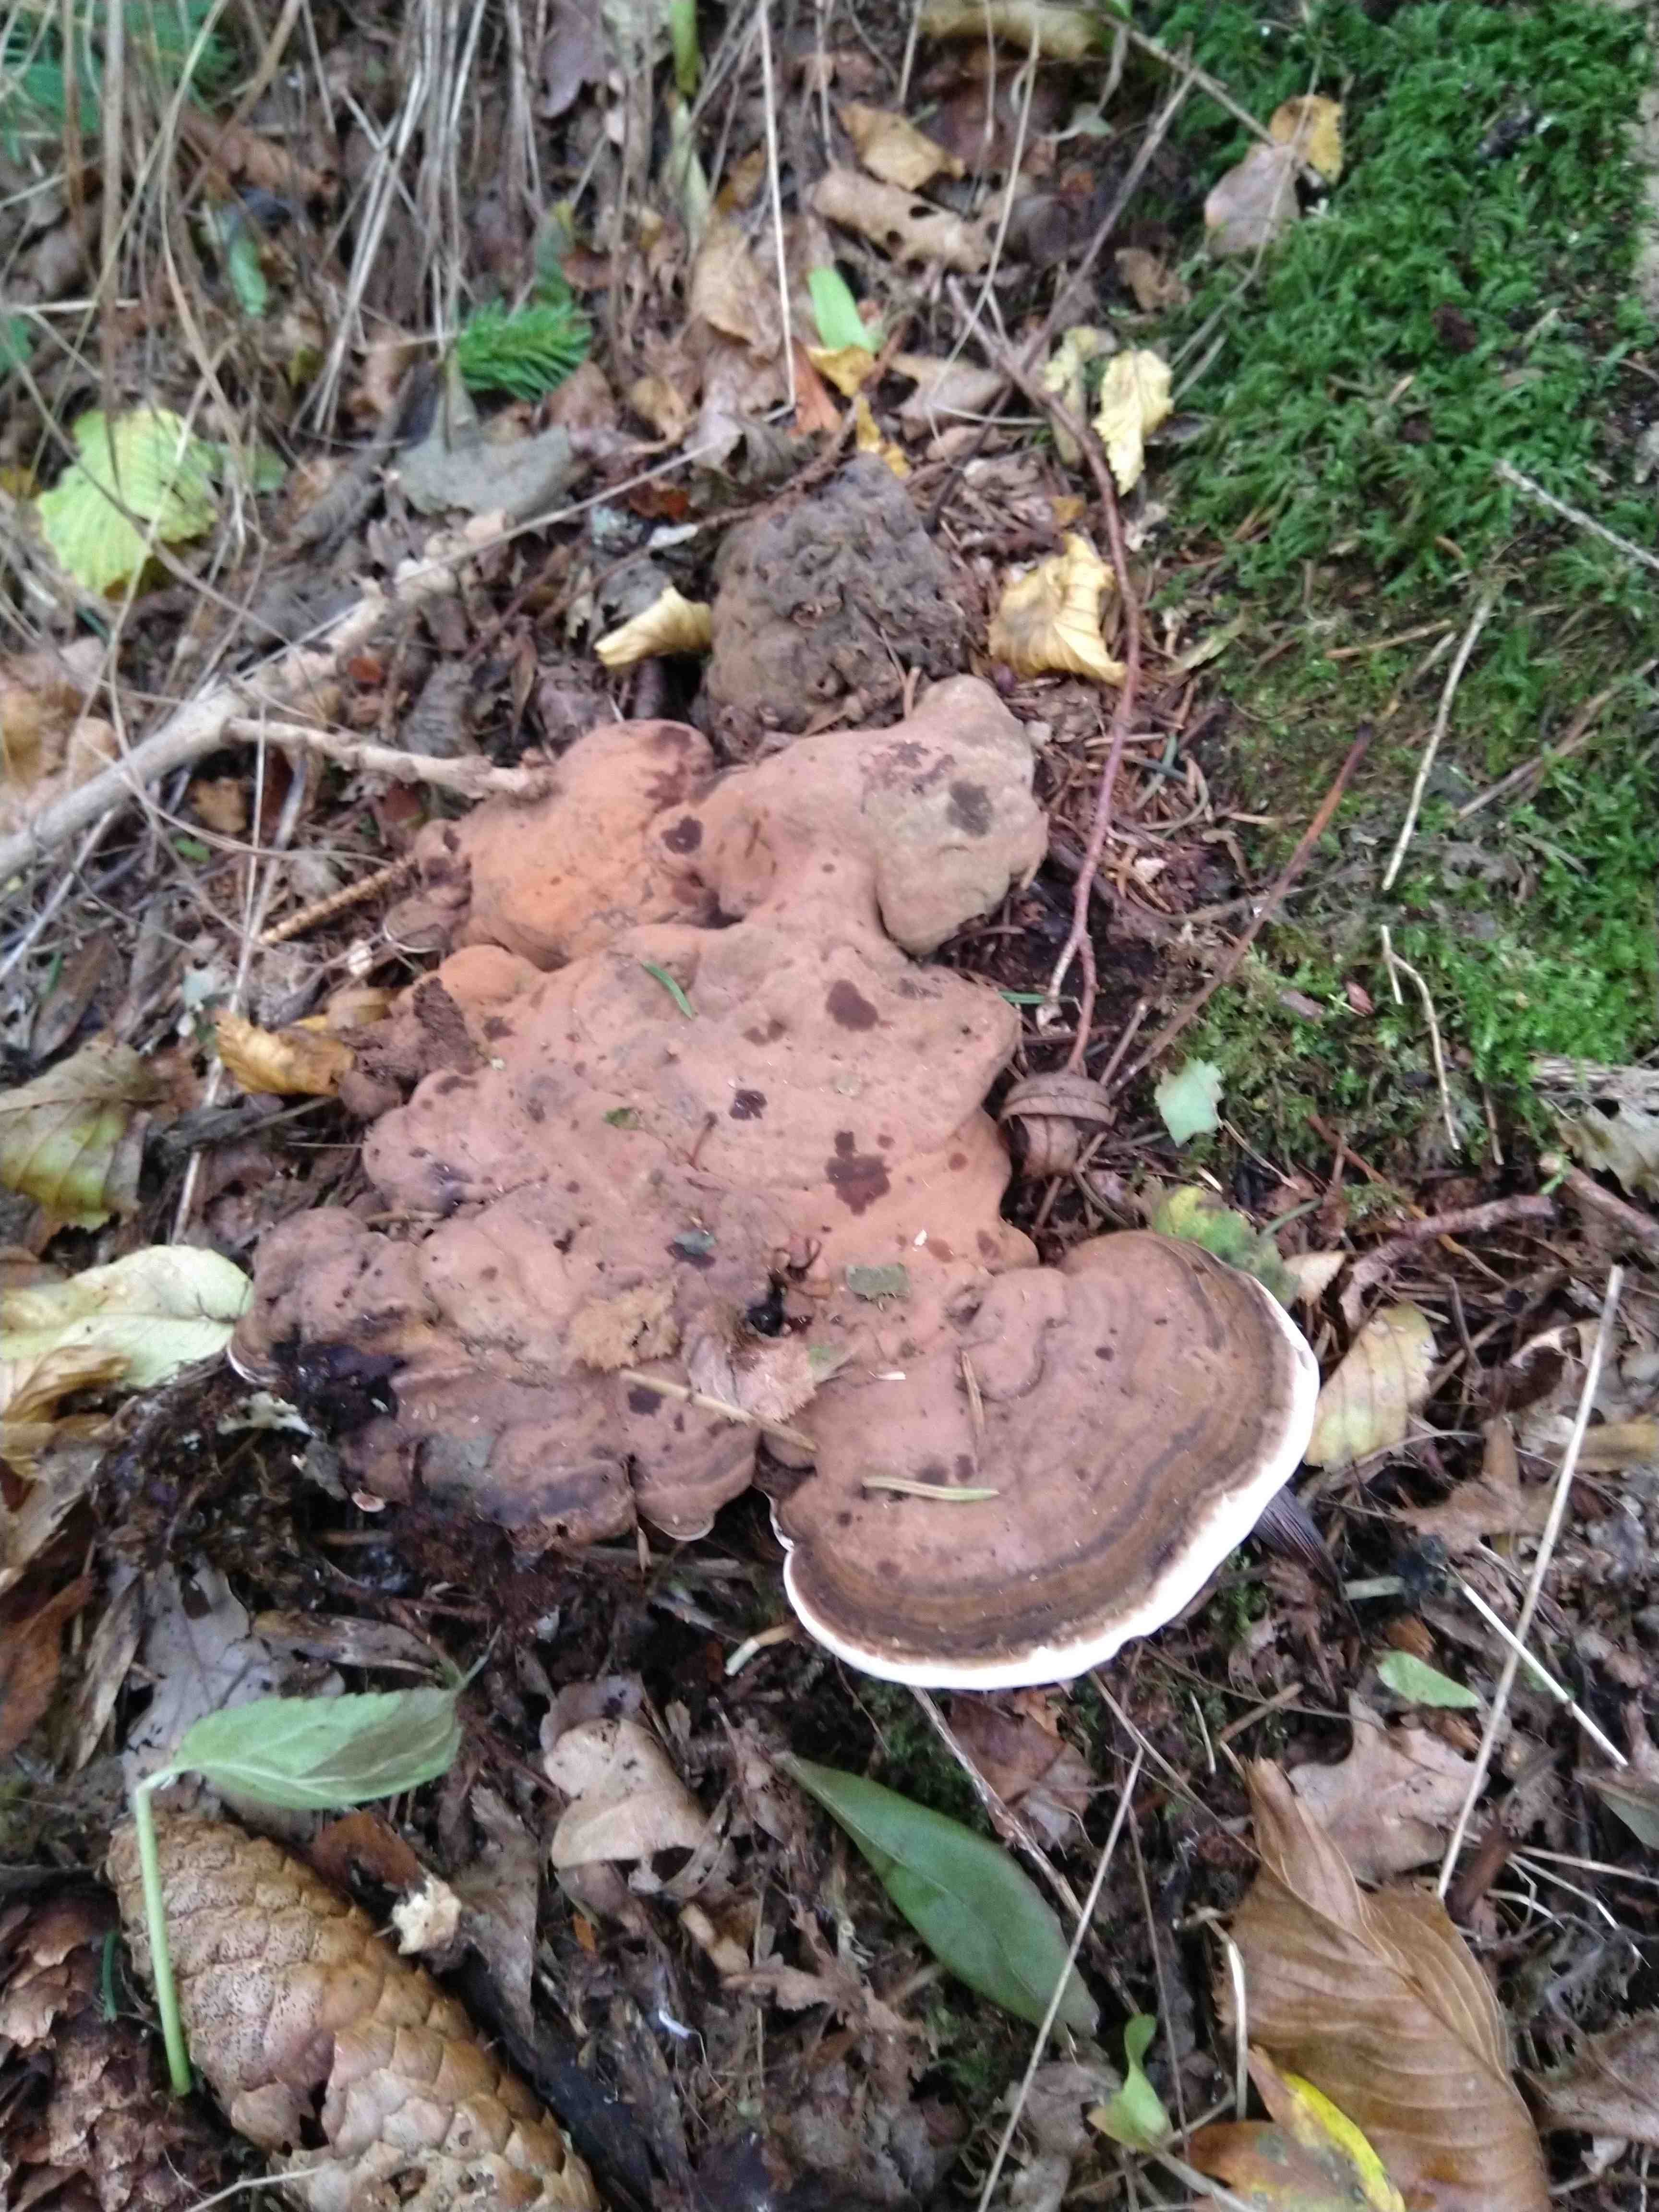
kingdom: Fungi
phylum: Basidiomycota
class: Agaricomycetes
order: Polyporales
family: Polyporaceae
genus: Ganoderma
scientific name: Ganoderma applanatum
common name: flad lakporesvamp
